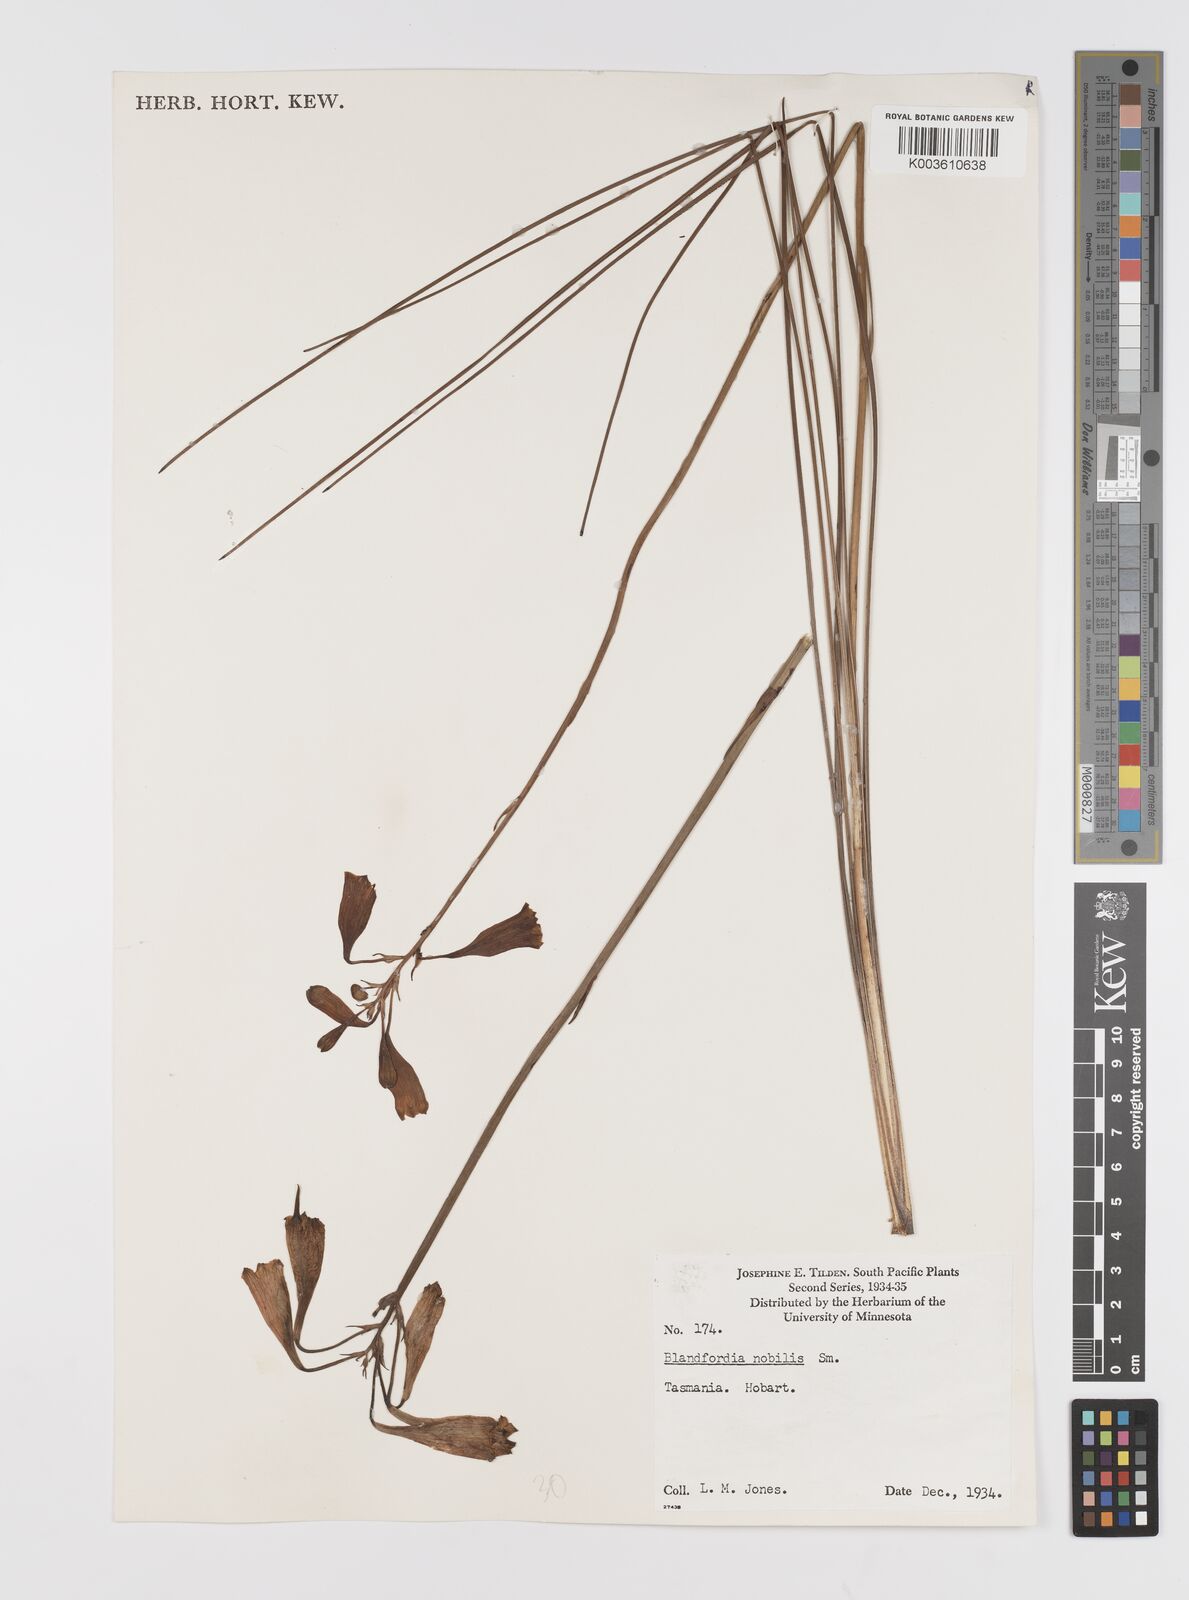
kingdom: Plantae
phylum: Tracheophyta
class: Liliopsida
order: Asparagales
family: Blandfordiaceae
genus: Blandfordia
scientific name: Blandfordia nobilis
